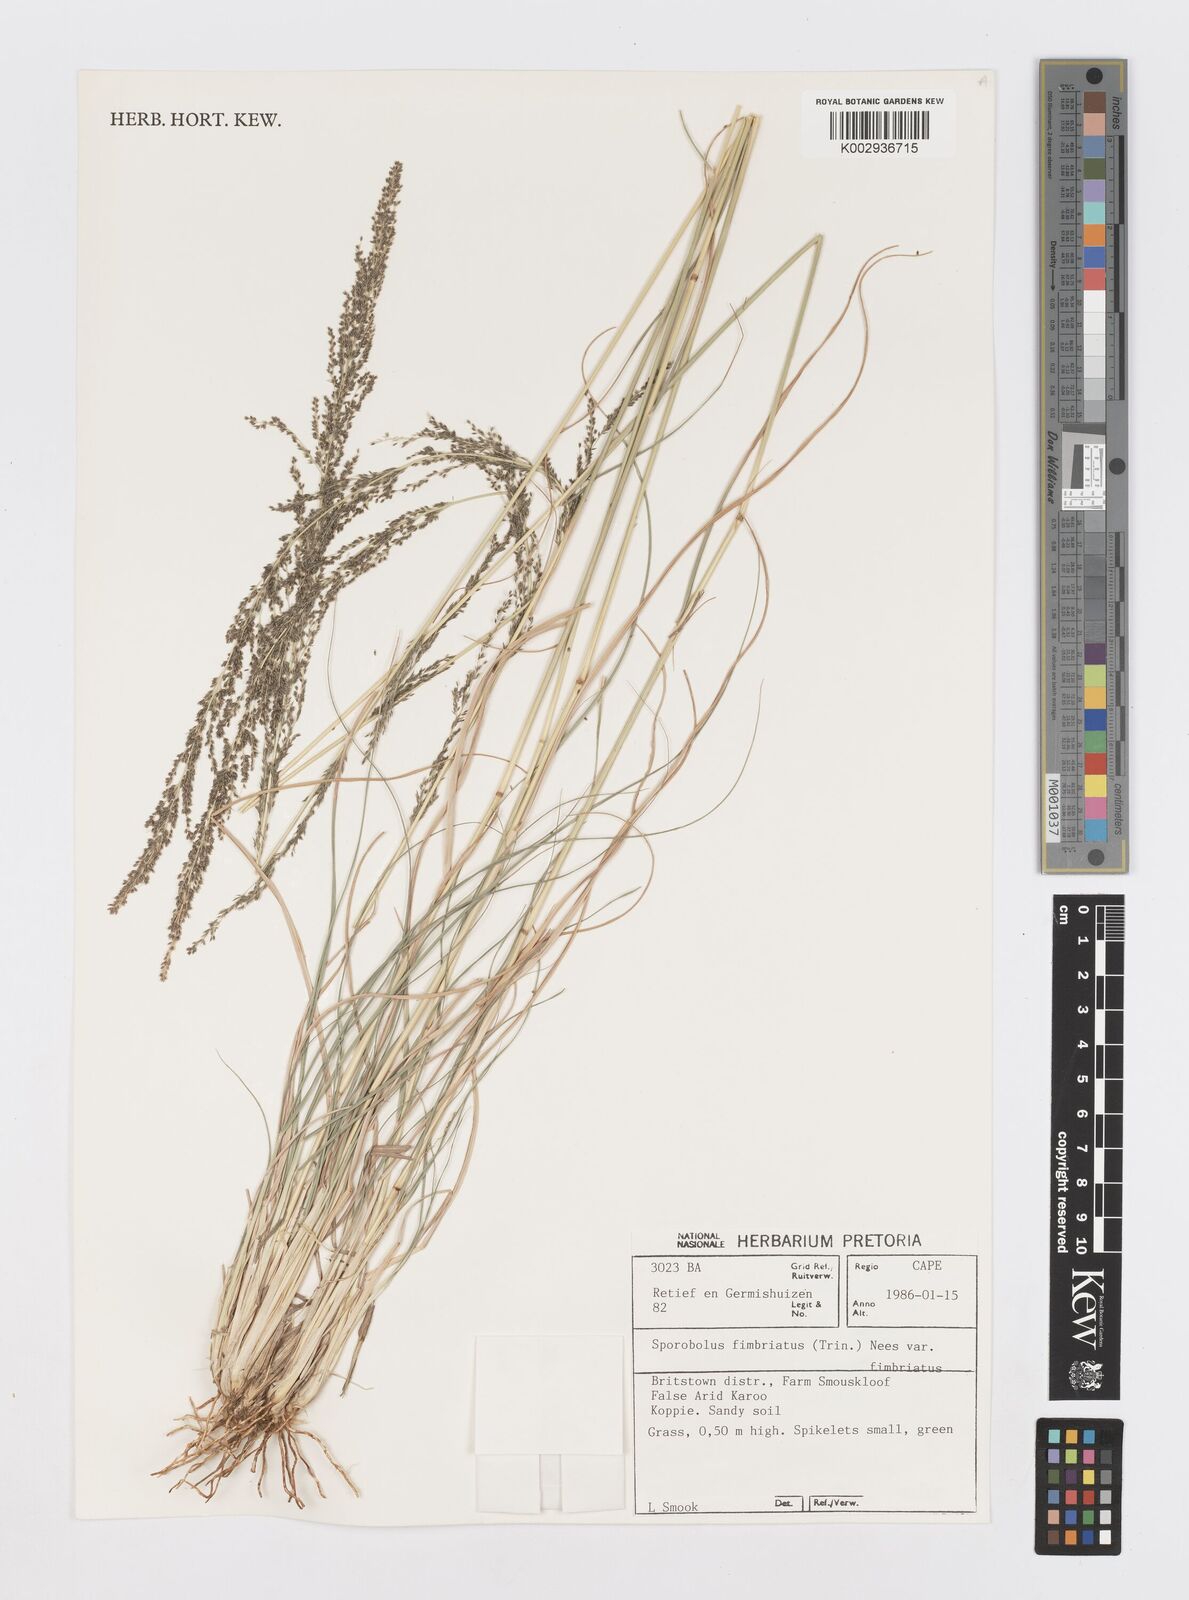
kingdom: Plantae
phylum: Tracheophyta
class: Liliopsida
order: Poales
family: Poaceae
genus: Sporobolus
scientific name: Sporobolus fimbriatus
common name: Fringed dropseed
